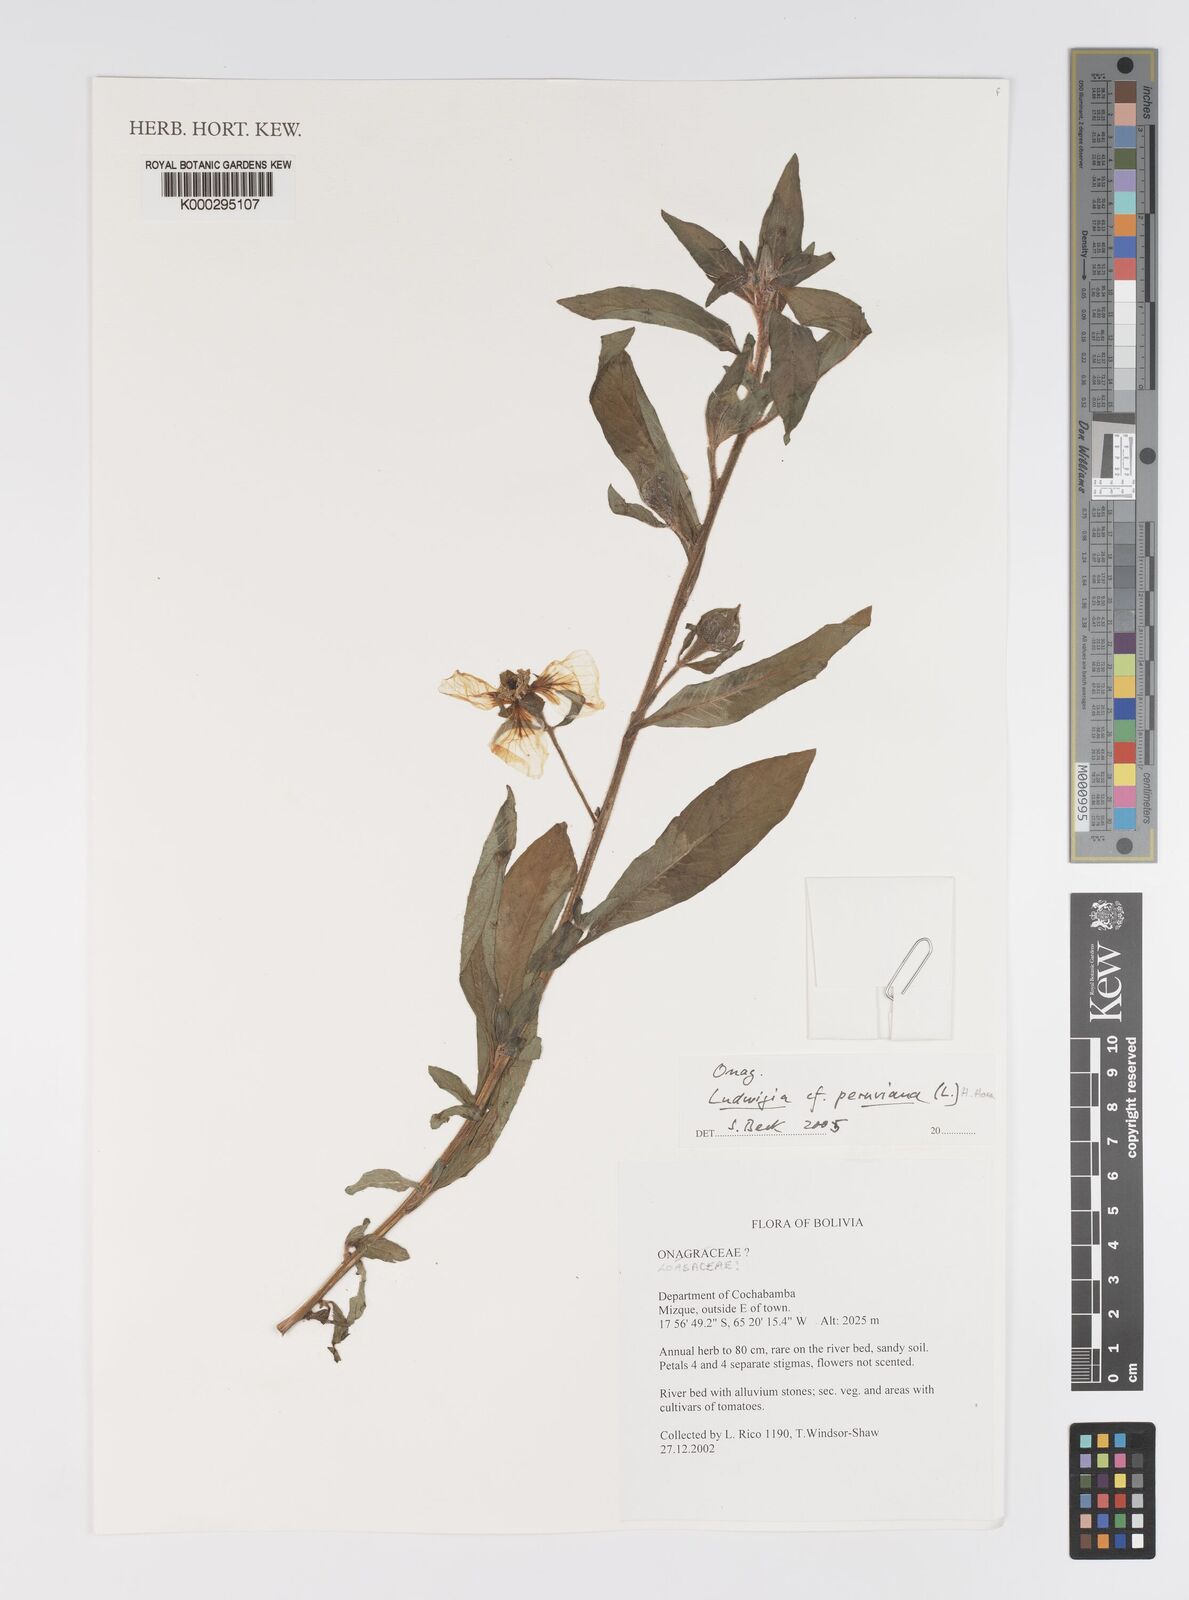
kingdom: Plantae
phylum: Tracheophyta
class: Magnoliopsida
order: Myrtales
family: Onagraceae
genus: Ludwigia
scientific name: Ludwigia peruviana
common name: Peruvian primrose-willow
